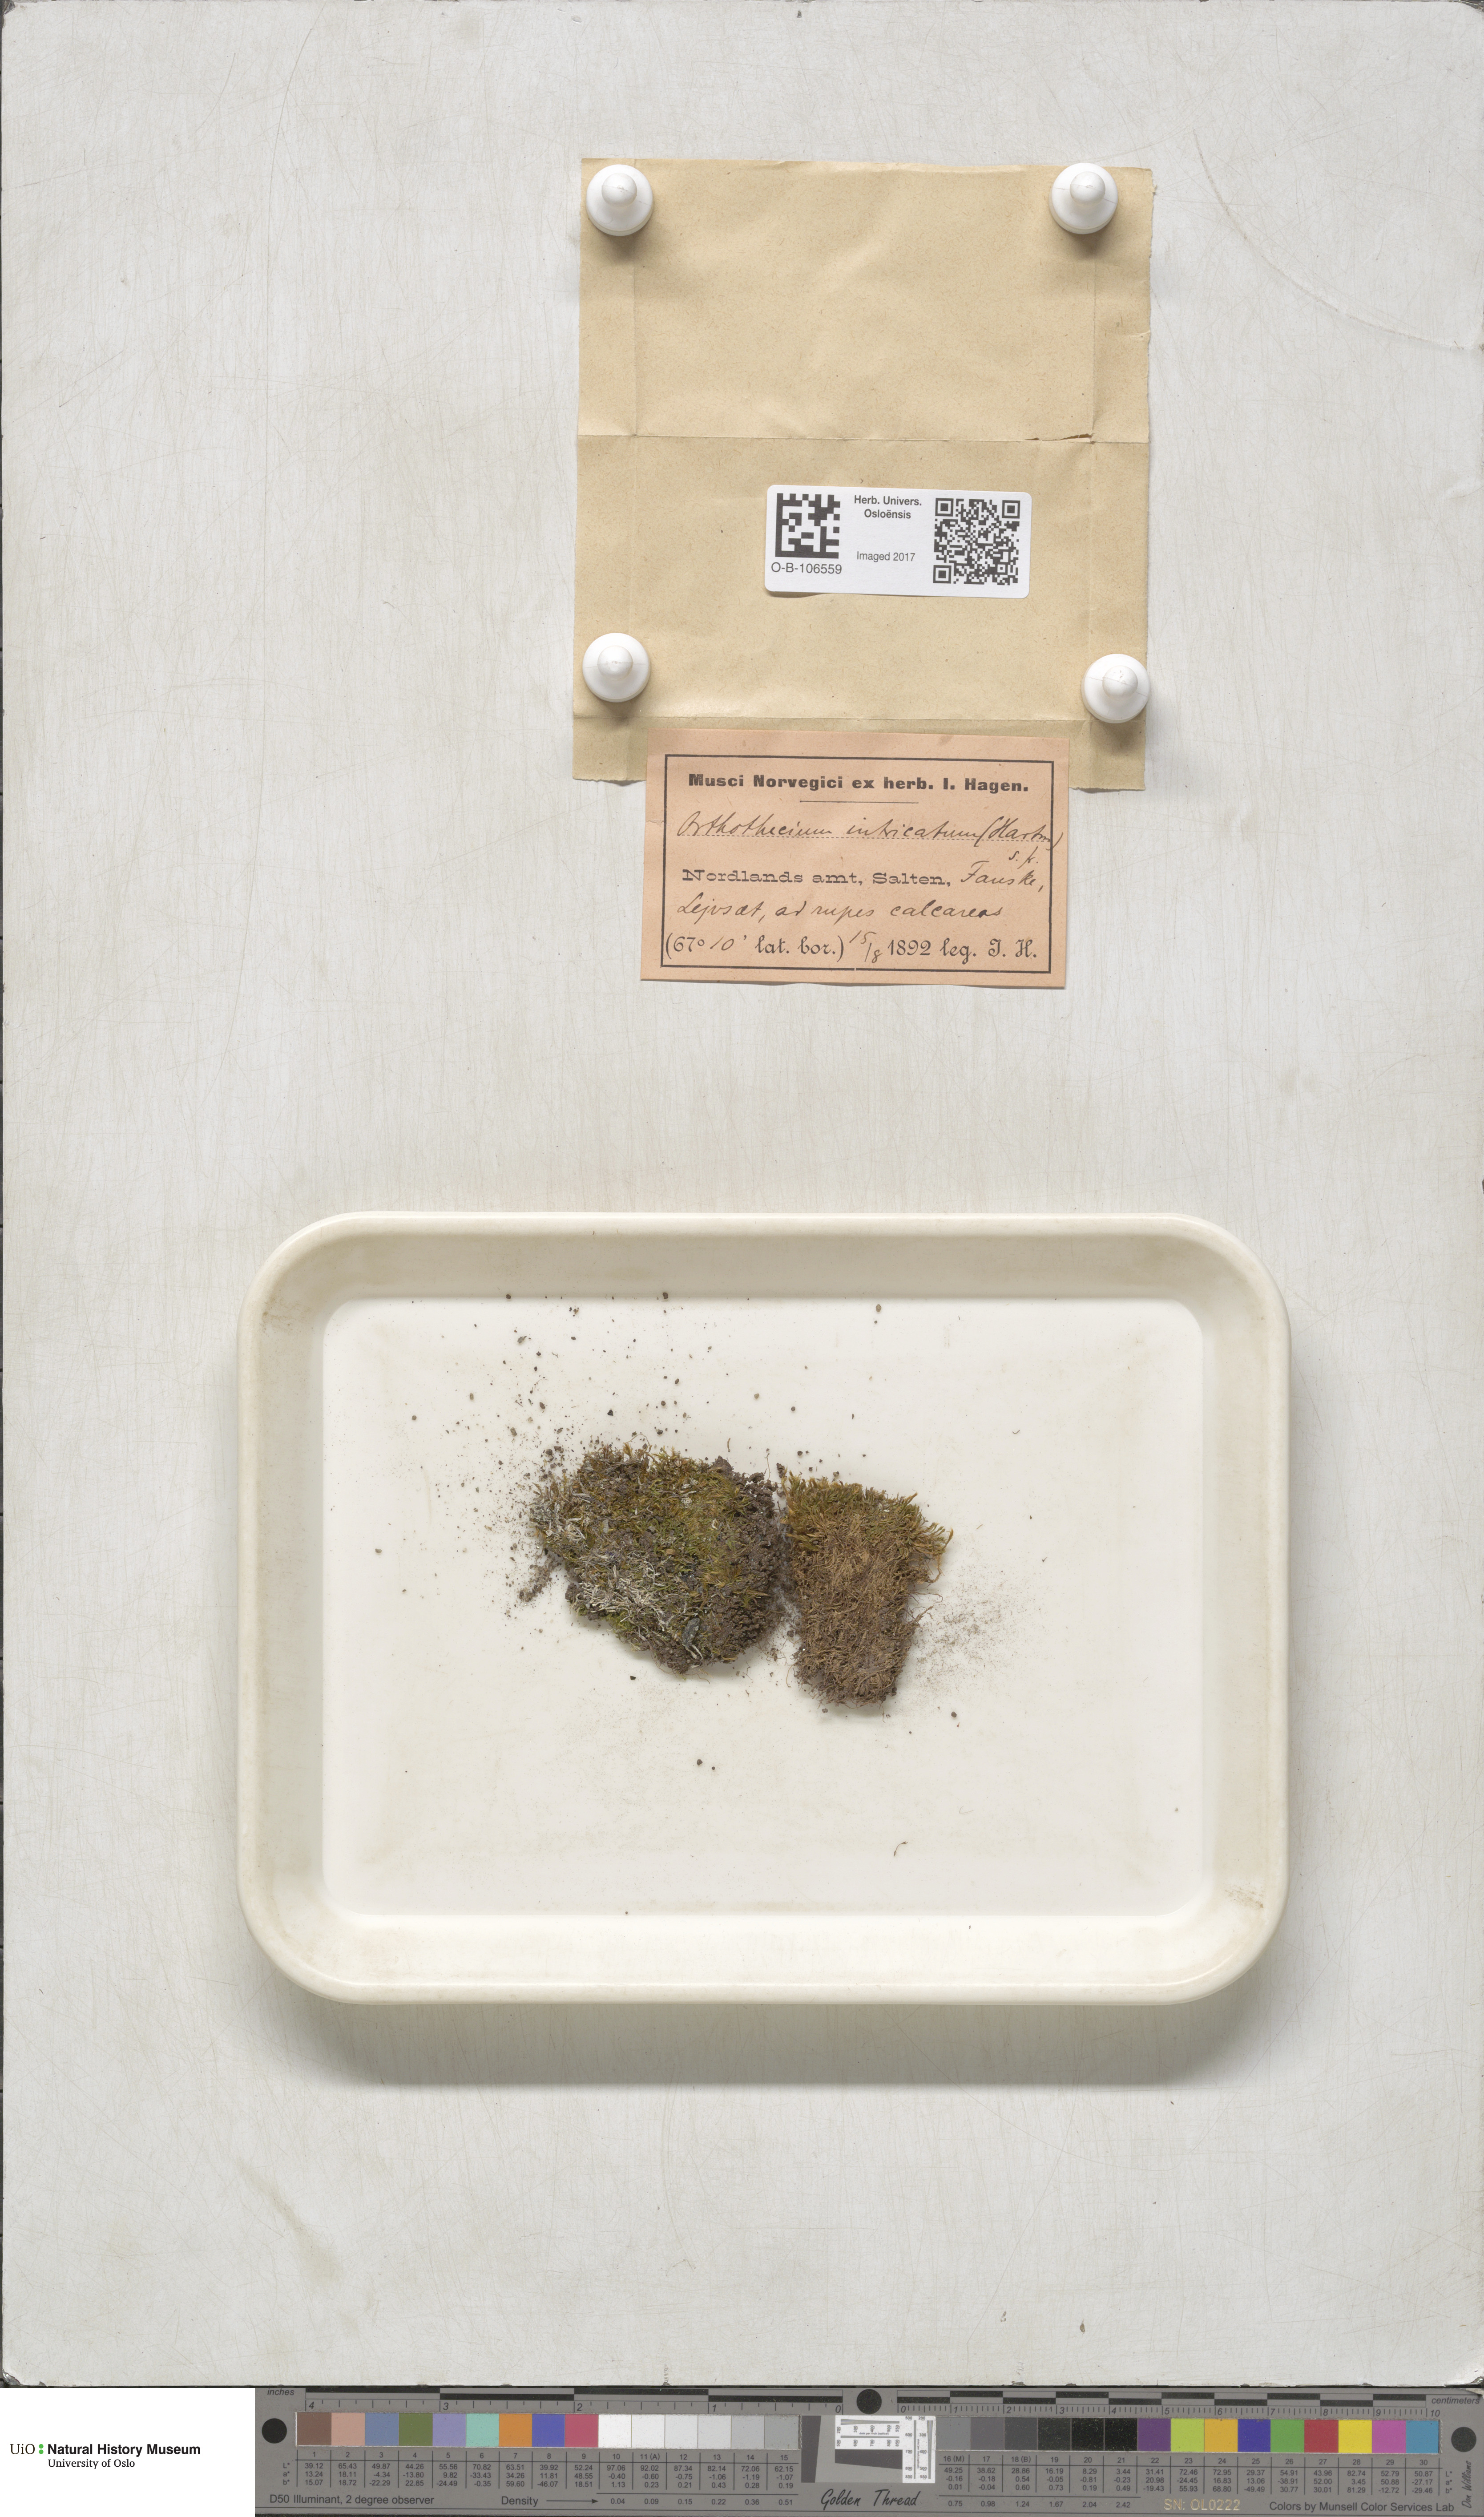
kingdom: Plantae
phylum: Bryophyta
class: Bryopsida
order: Hypnales
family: Plagiotheciaceae
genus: Orthothecium
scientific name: Orthothecium intricatum
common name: Fine-leaved erect-capsule moss
